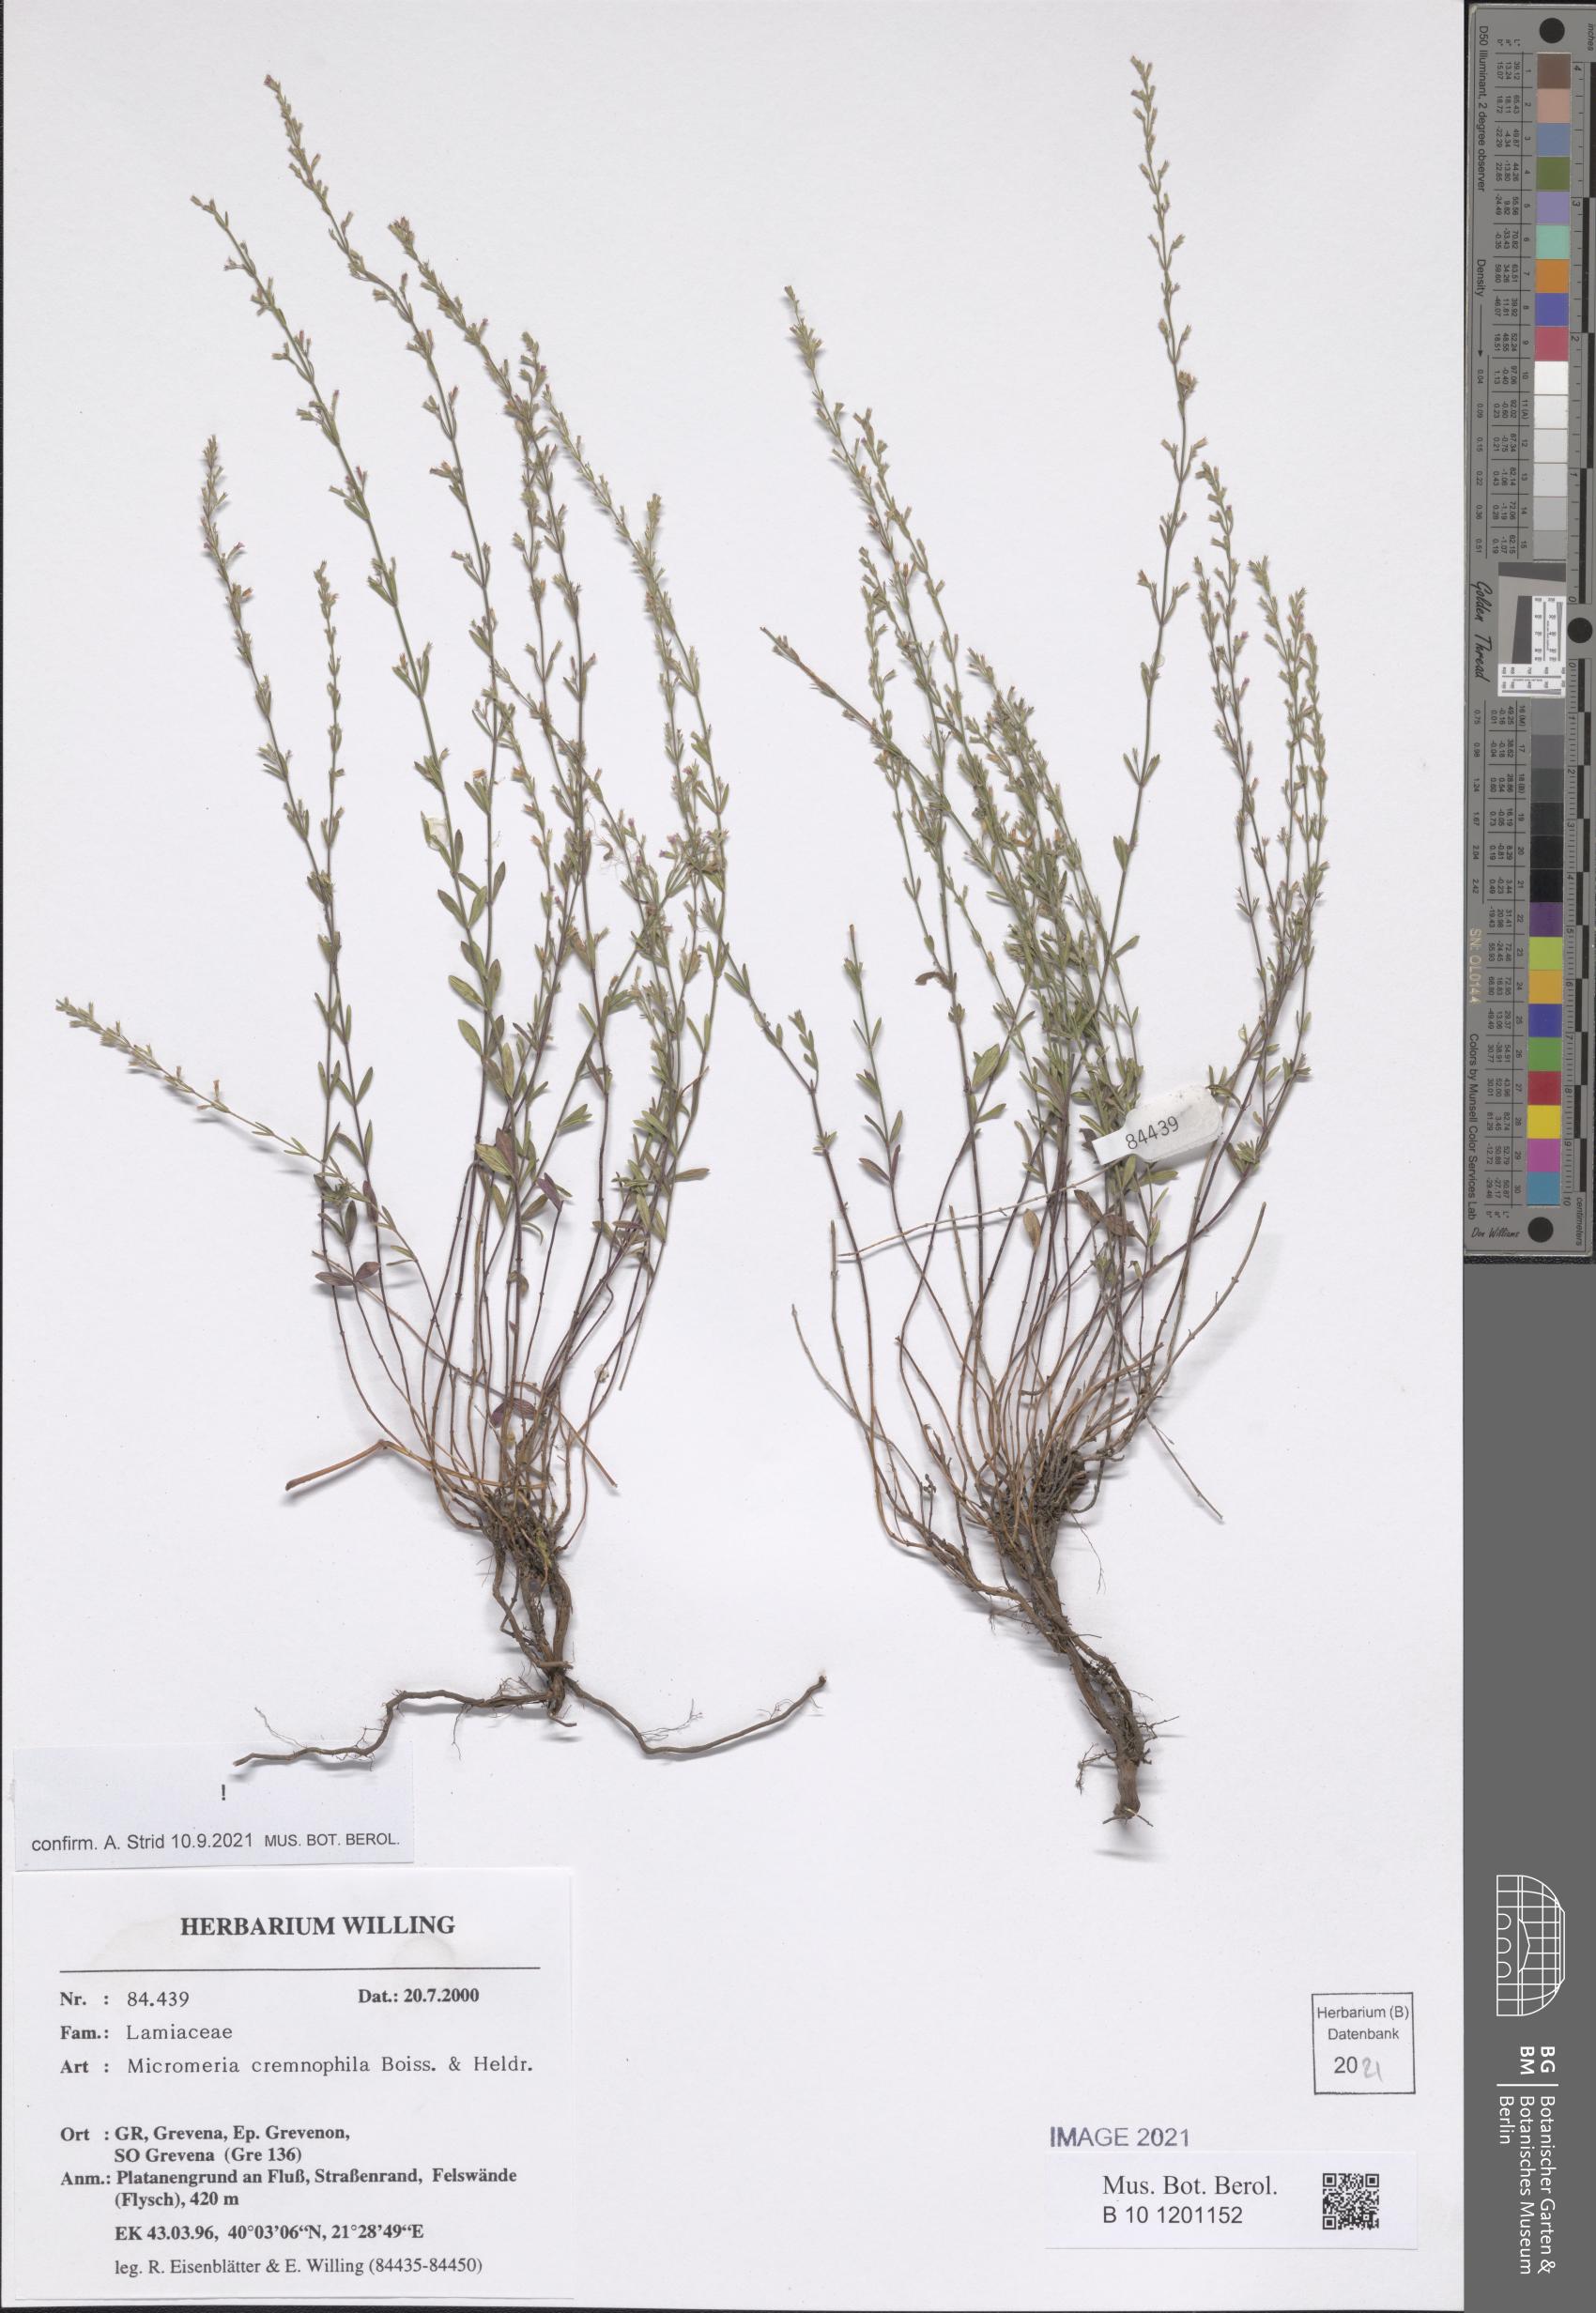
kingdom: Plantae
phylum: Tracheophyta
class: Magnoliopsida
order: Lamiales
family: Lamiaceae
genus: Micromeria
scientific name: Micromeria cremnophila
